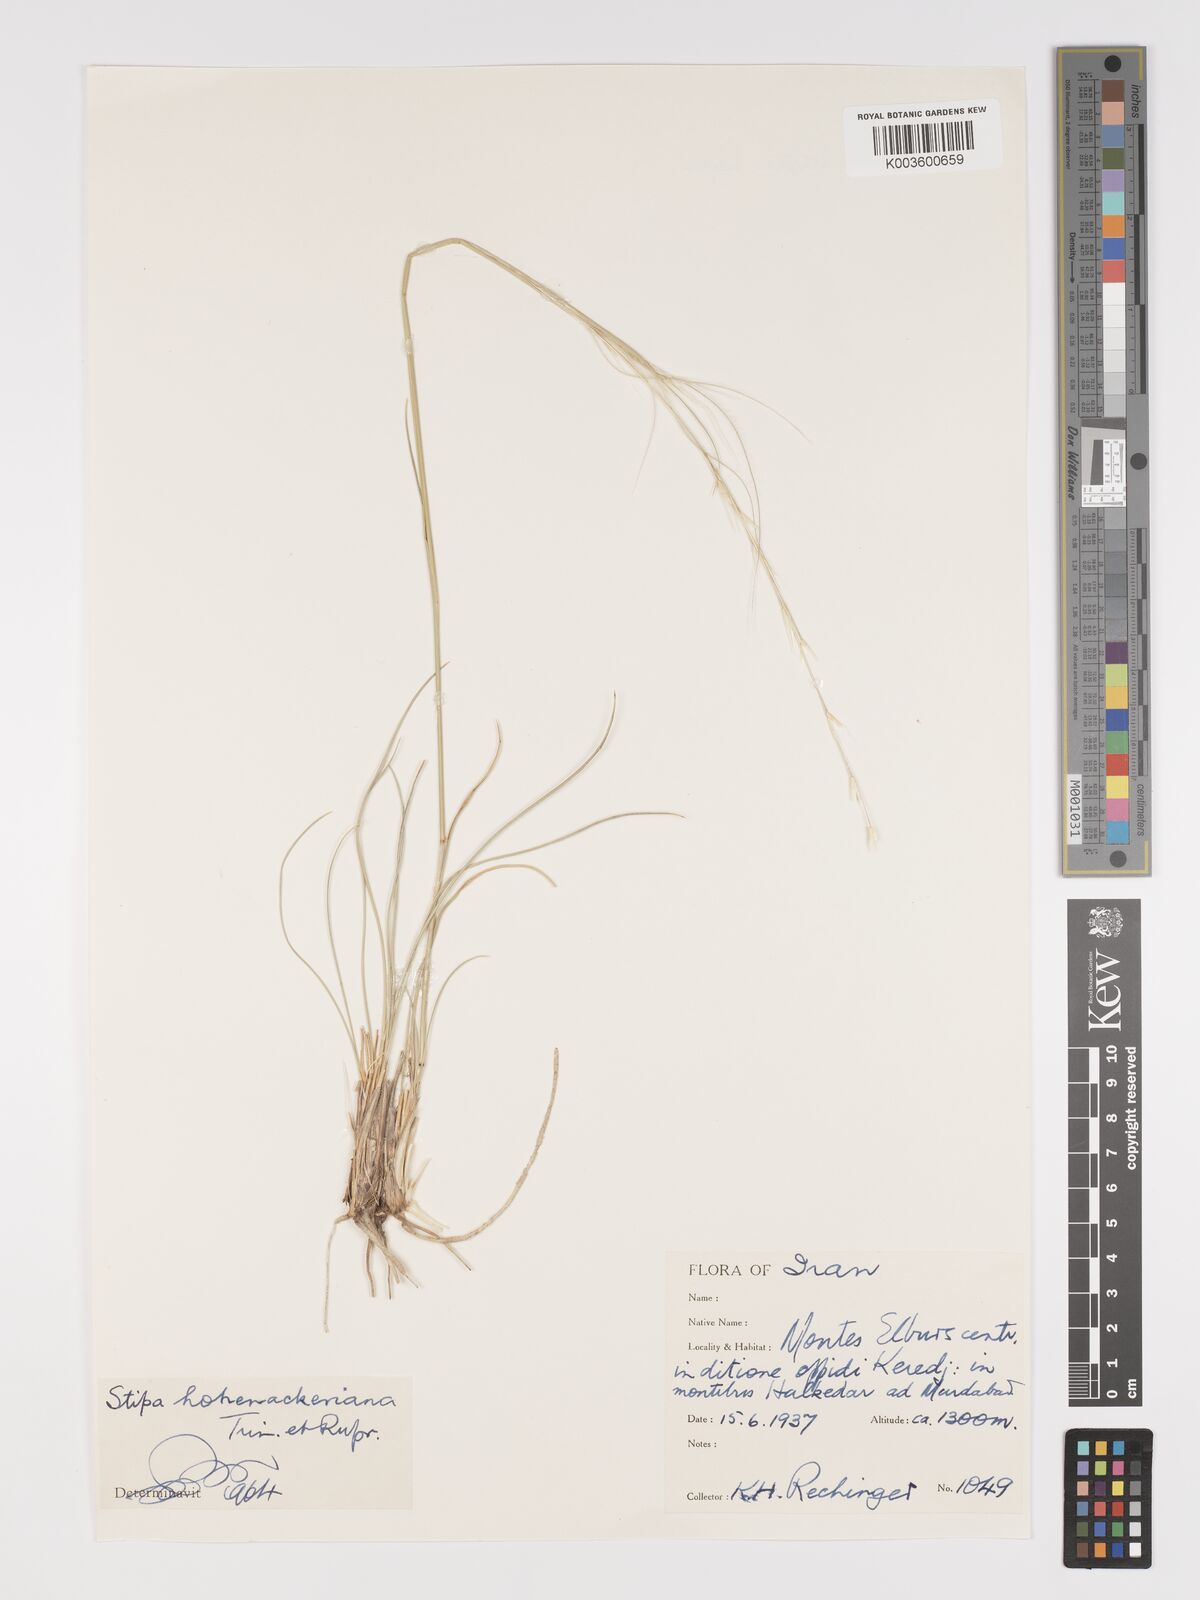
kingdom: Plantae
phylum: Tracheophyta
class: Liliopsida
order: Poales
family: Poaceae
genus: Stipa
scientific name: Stipa hohenackeriana
